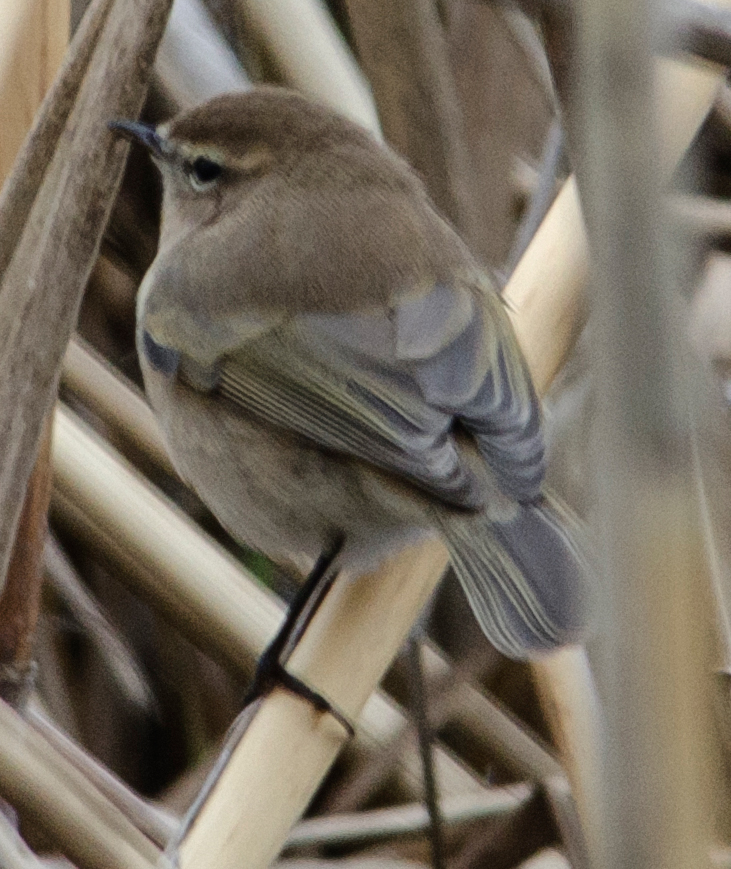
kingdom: Animalia
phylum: Chordata
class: Aves
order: Passeriformes
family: Phylloscopidae
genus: Phylloscopus
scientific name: Phylloscopus sindianus
